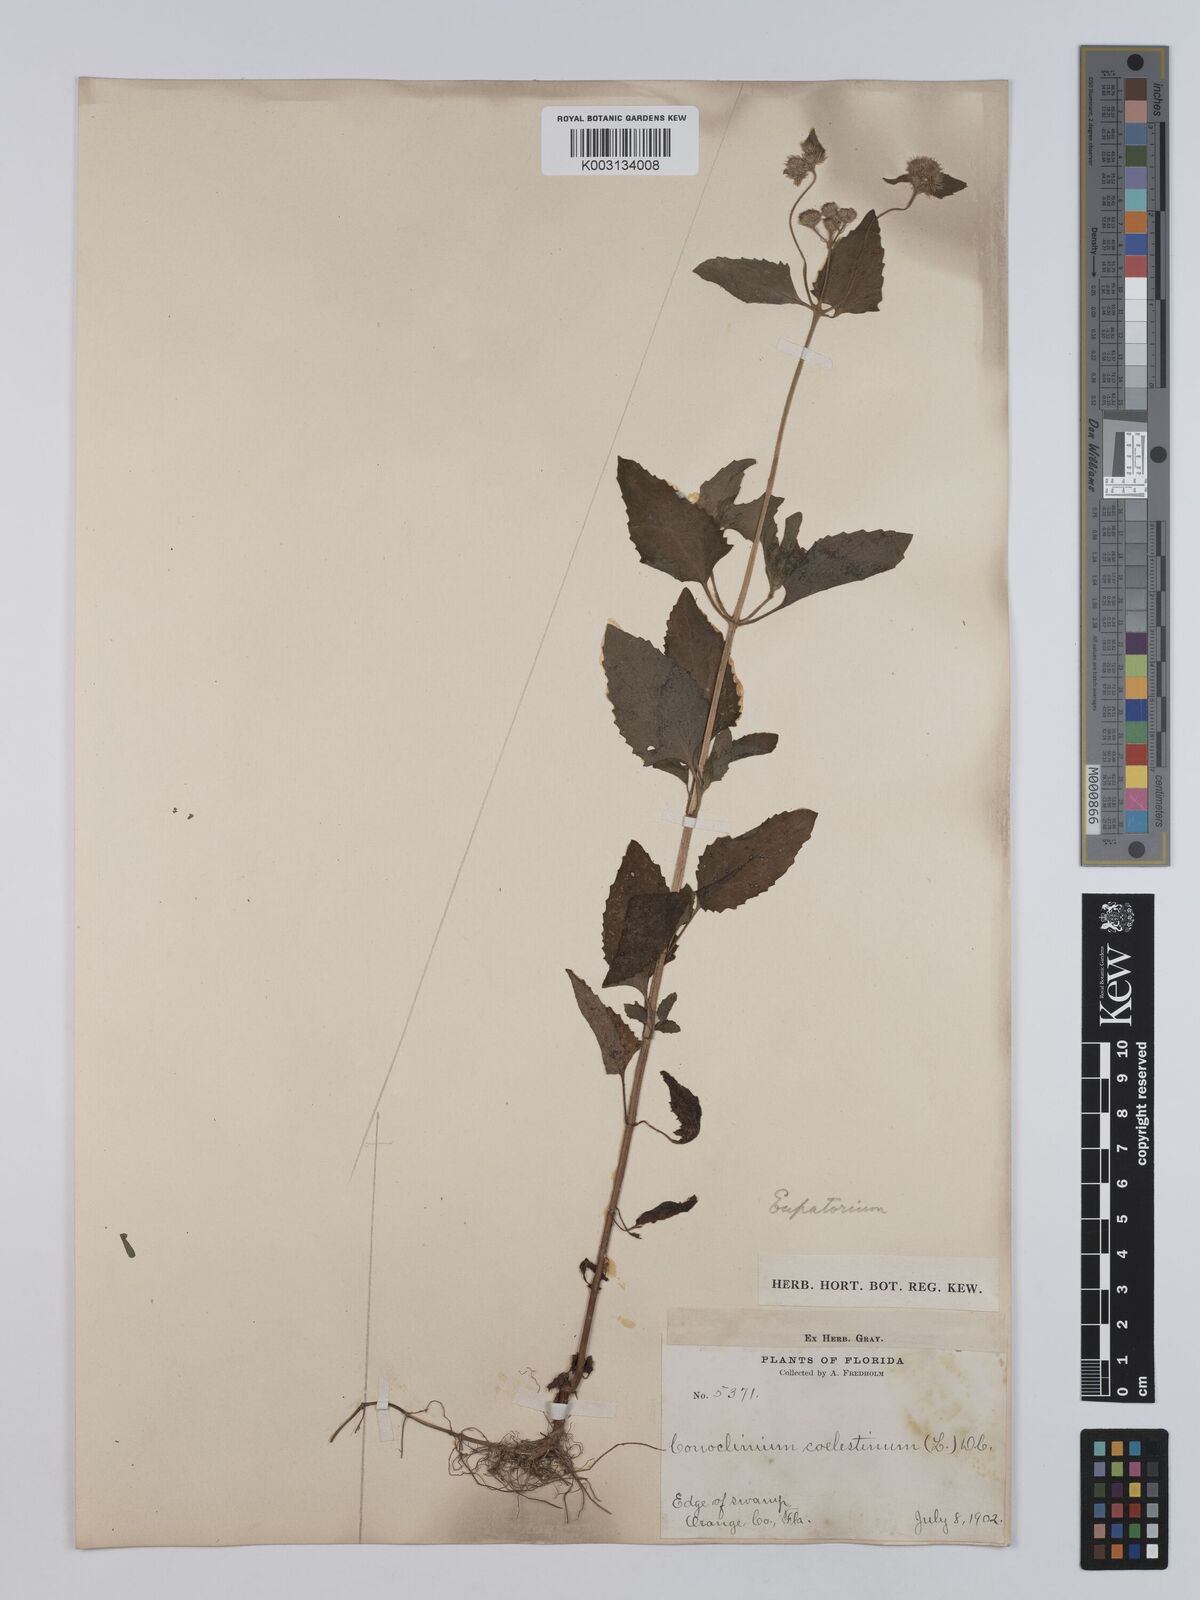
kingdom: Plantae
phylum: Tracheophyta
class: Magnoliopsida
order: Asterales
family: Asteraceae
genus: Conoclinium
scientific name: Conoclinium coelestinum
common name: Blue mistflower
